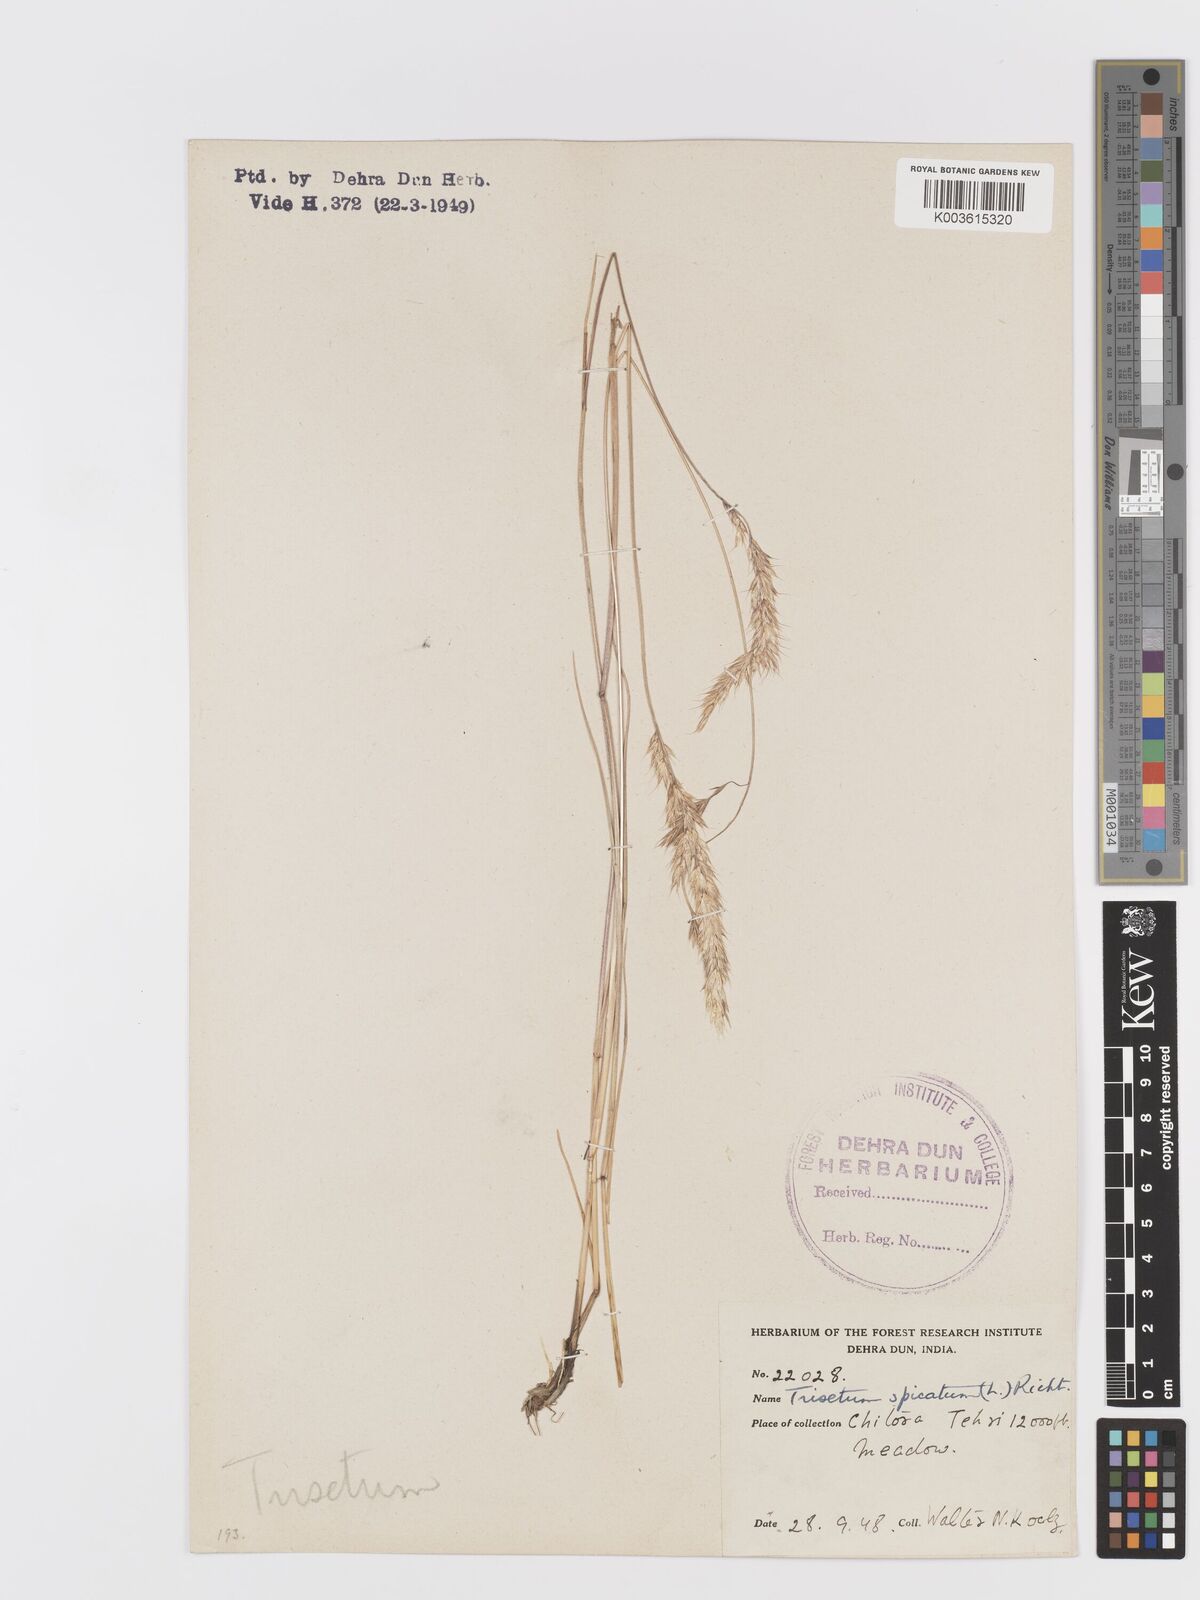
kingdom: Plantae
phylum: Tracheophyta
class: Liliopsida
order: Poales
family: Poaceae
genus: Koeleria
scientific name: Koeleria spicata
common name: Mountain trisetum
